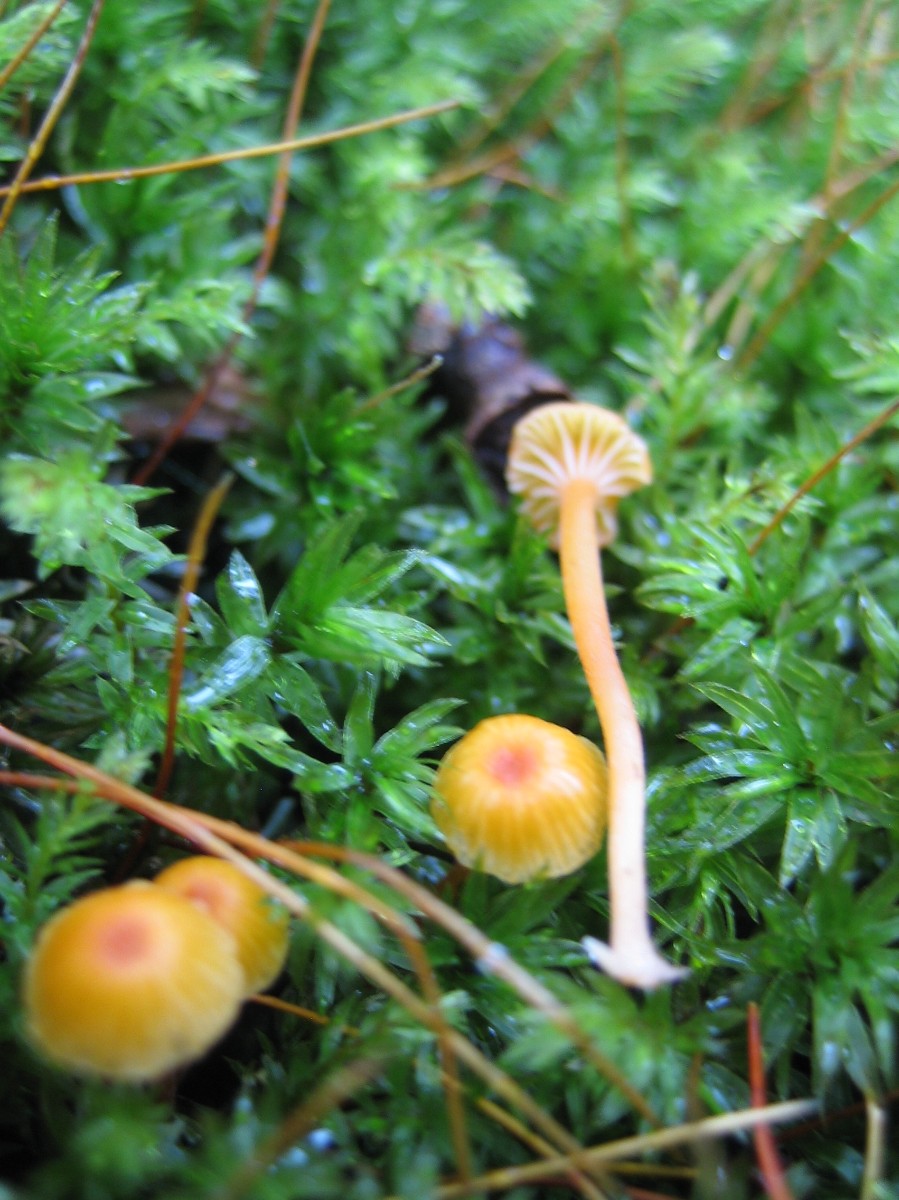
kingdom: Fungi
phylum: Basidiomycota
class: Agaricomycetes
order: Hymenochaetales
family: Rickenellaceae
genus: Rickenella
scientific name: Rickenella fibula
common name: orange mosnavlehat
